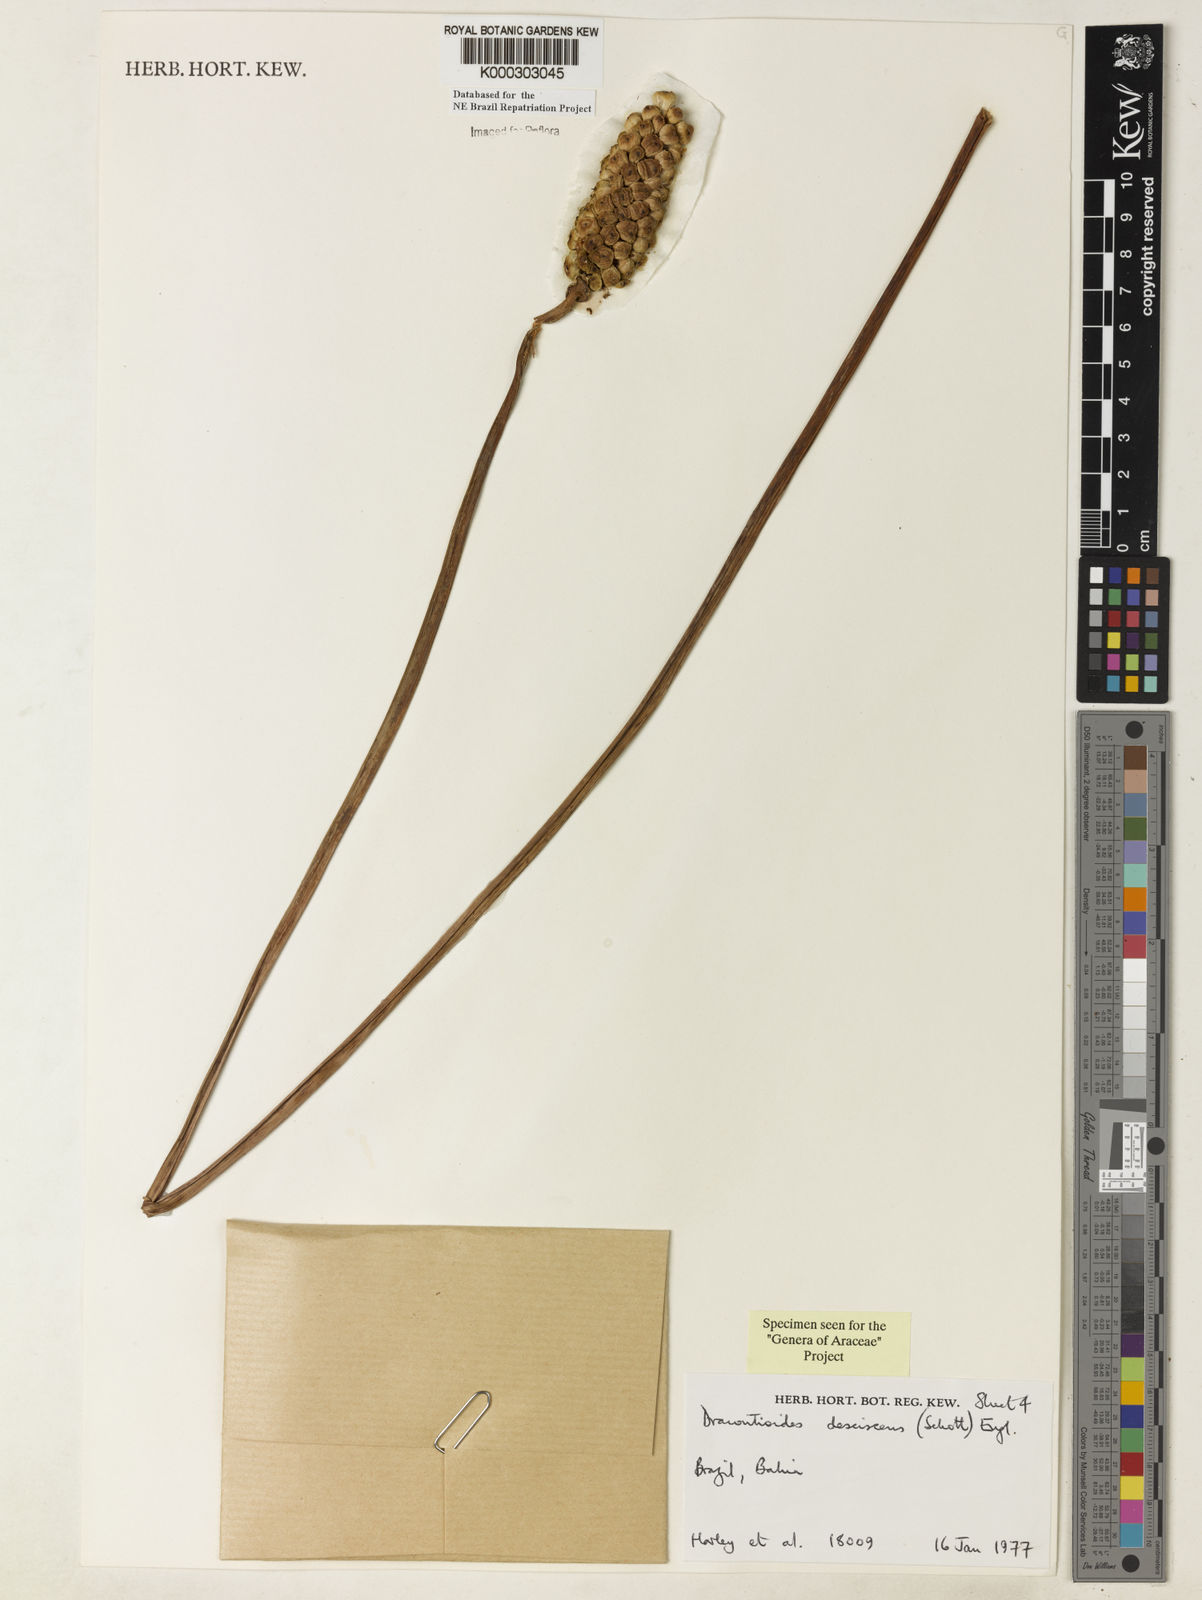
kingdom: Plantae
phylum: Tracheophyta
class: Liliopsida
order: Alismatales
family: Araceae
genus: Dracontioides
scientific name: Dracontioides desciscens
